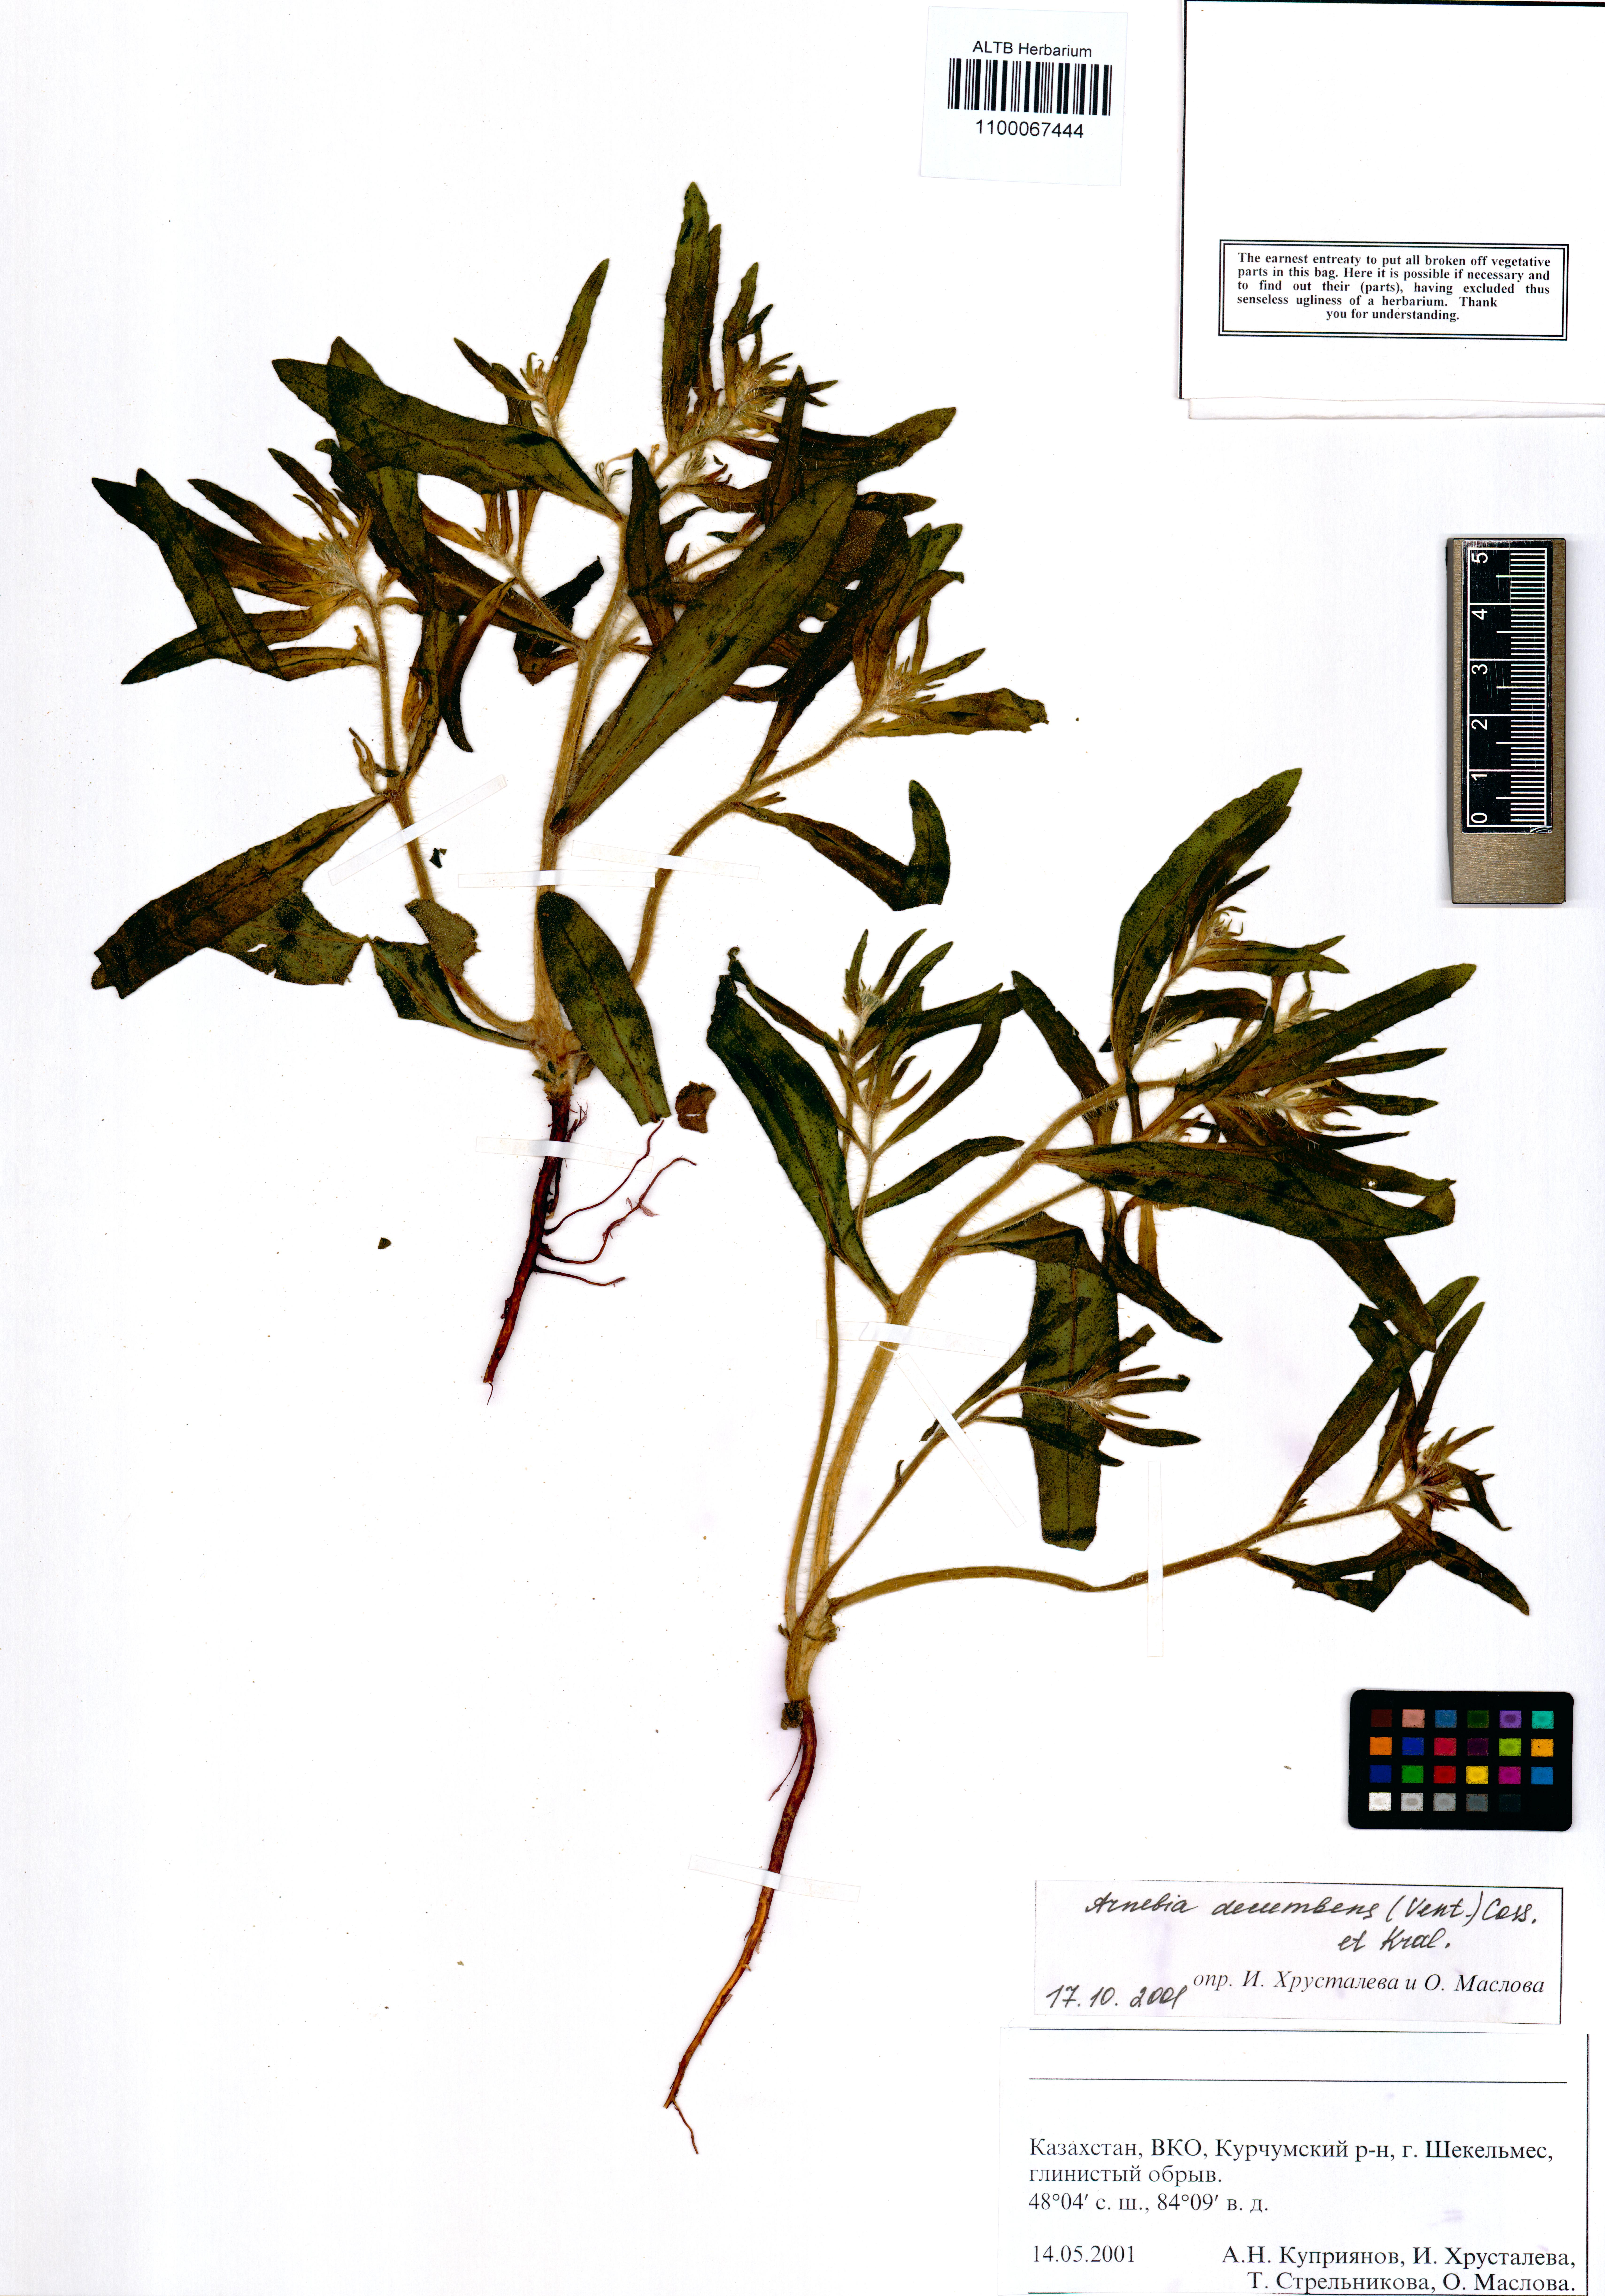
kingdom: Plantae
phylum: Tracheophyta
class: Magnoliopsida
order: Boraginales
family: Boraginaceae
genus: Arnebia
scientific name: Arnebia decumbens
